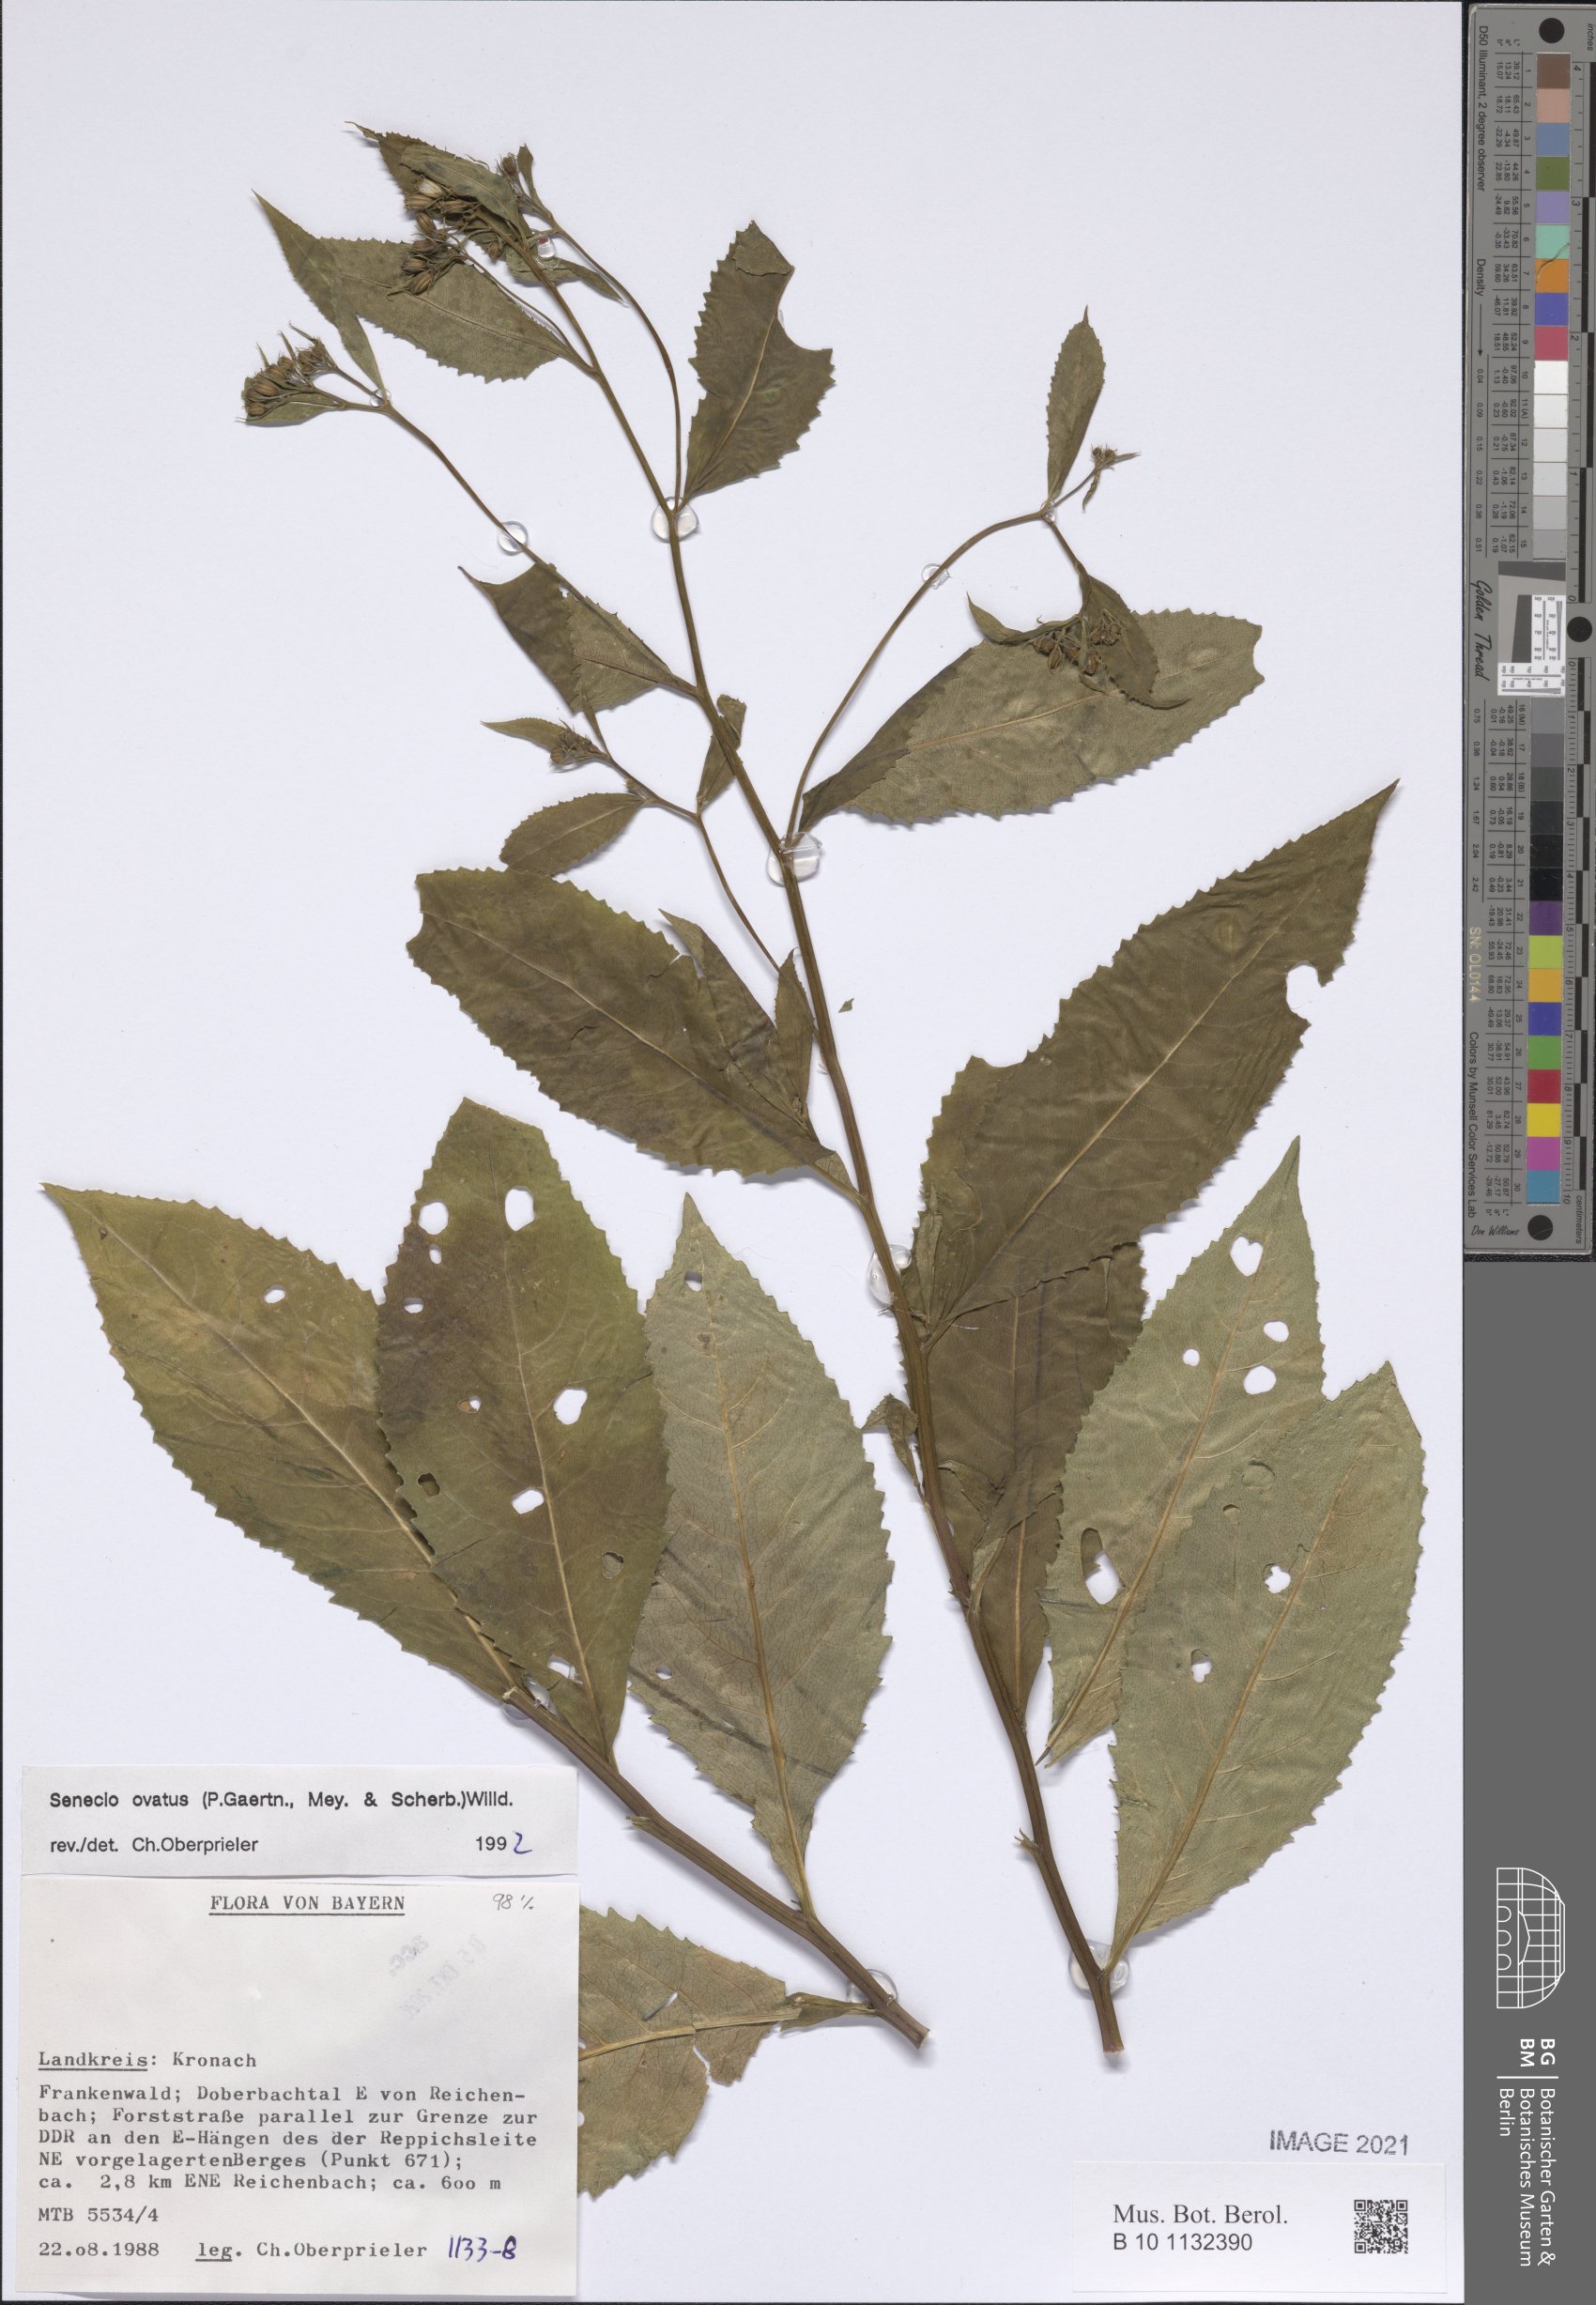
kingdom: Plantae
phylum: Tracheophyta
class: Magnoliopsida
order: Asterales
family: Asteraceae
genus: Senecio
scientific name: Senecio ovatus
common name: Wood ragwort
